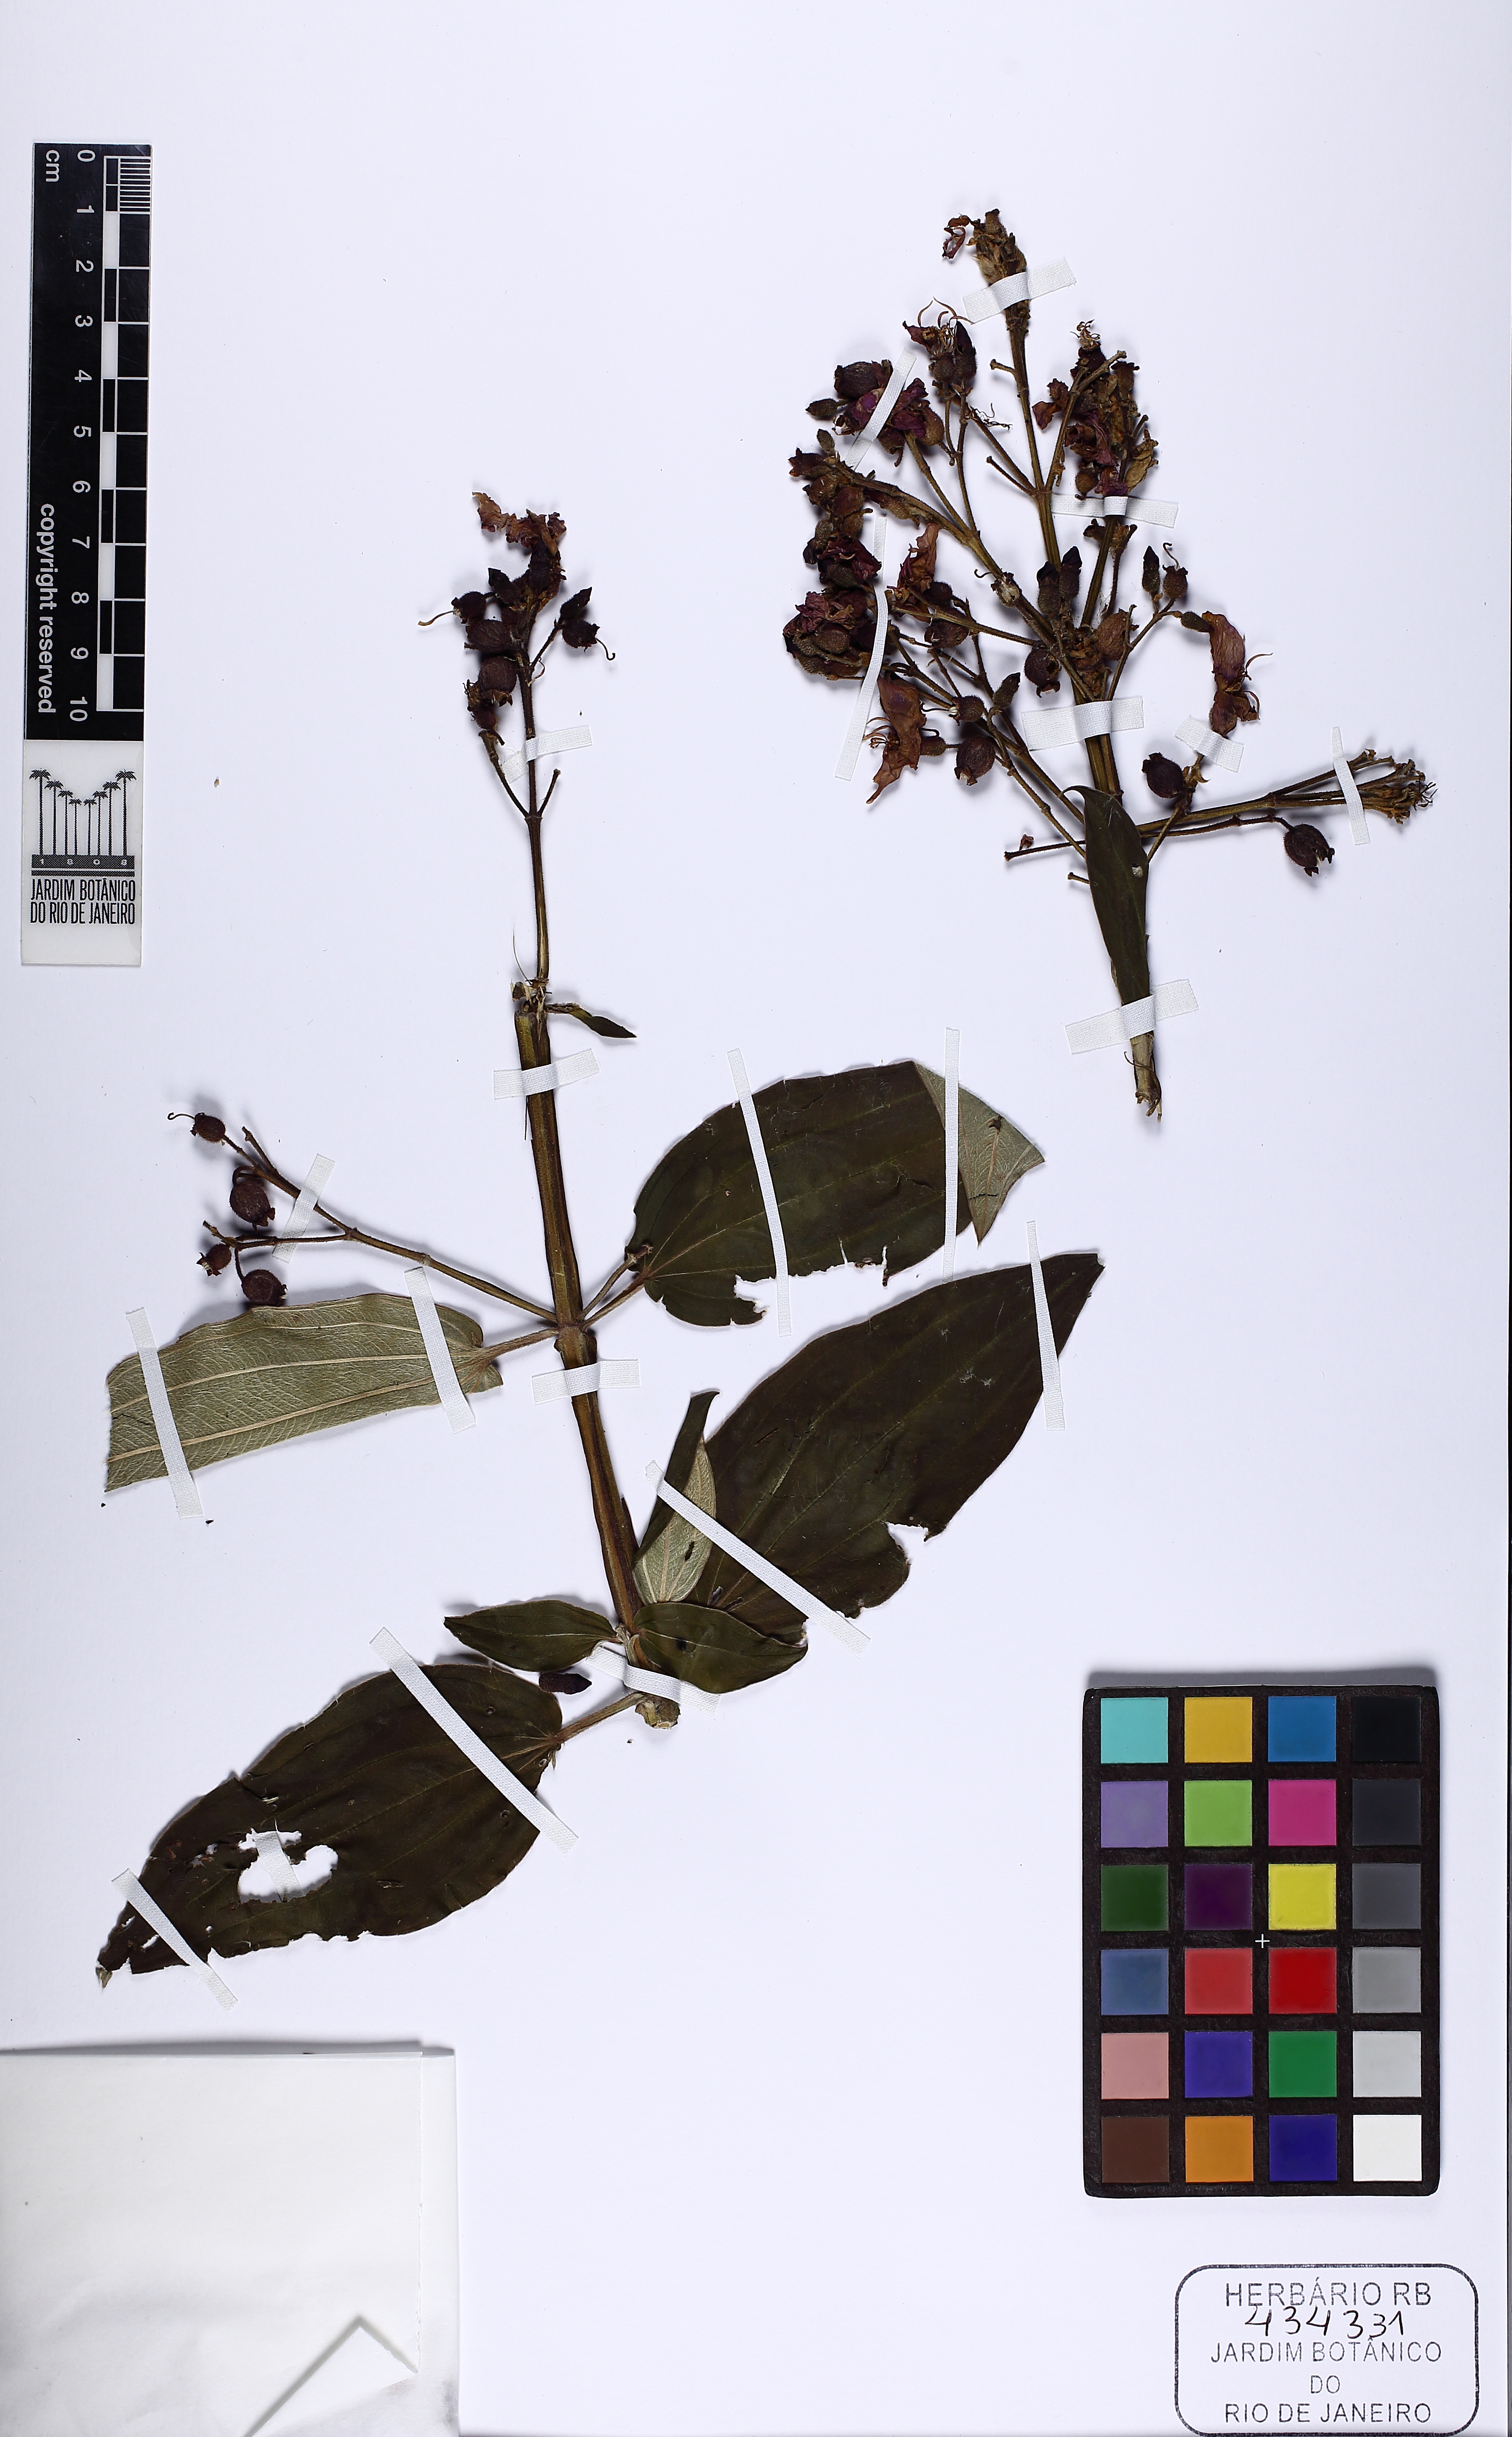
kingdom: Plantae
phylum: Tracheophyta
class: Magnoliopsida
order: Myrtales
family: Melastomataceae
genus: Pleroma
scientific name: Pleroma benthamianum
